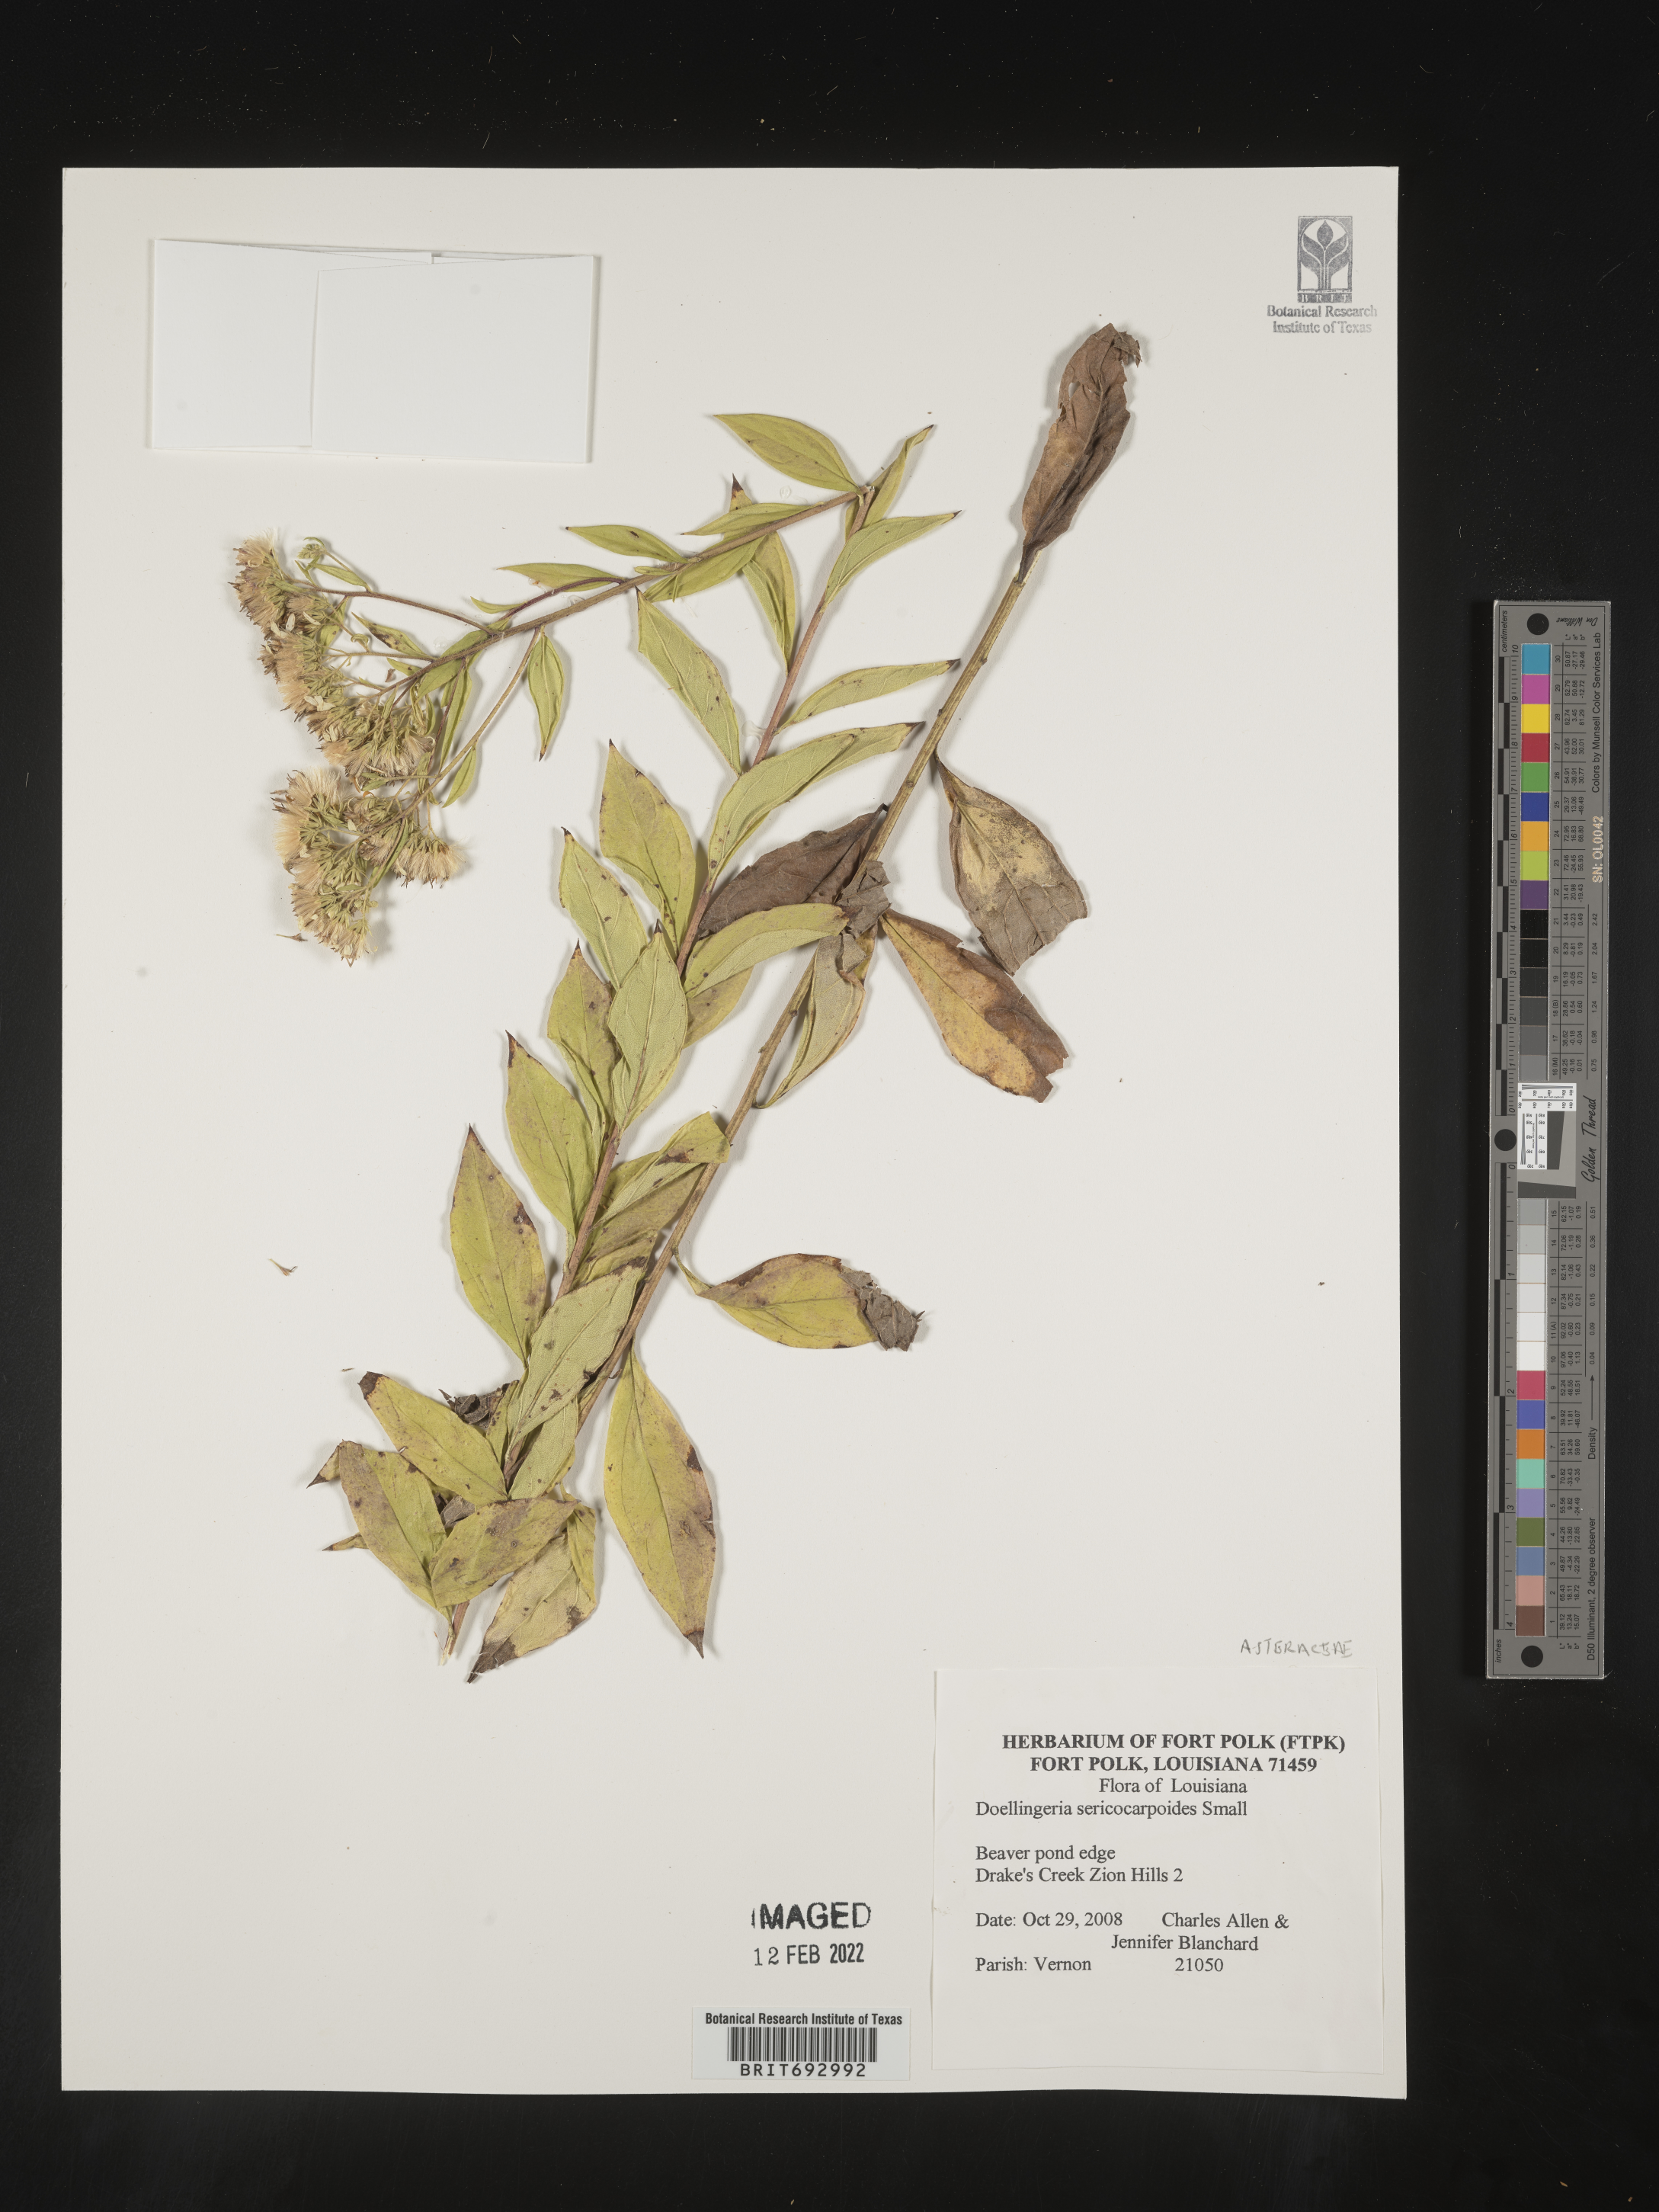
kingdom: Plantae
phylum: Tracheophyta
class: Magnoliopsida
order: Asterales
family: Asteraceae
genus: Doellingeria
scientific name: Doellingeria sericocarpoides
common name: Southern tall flat-top aster
